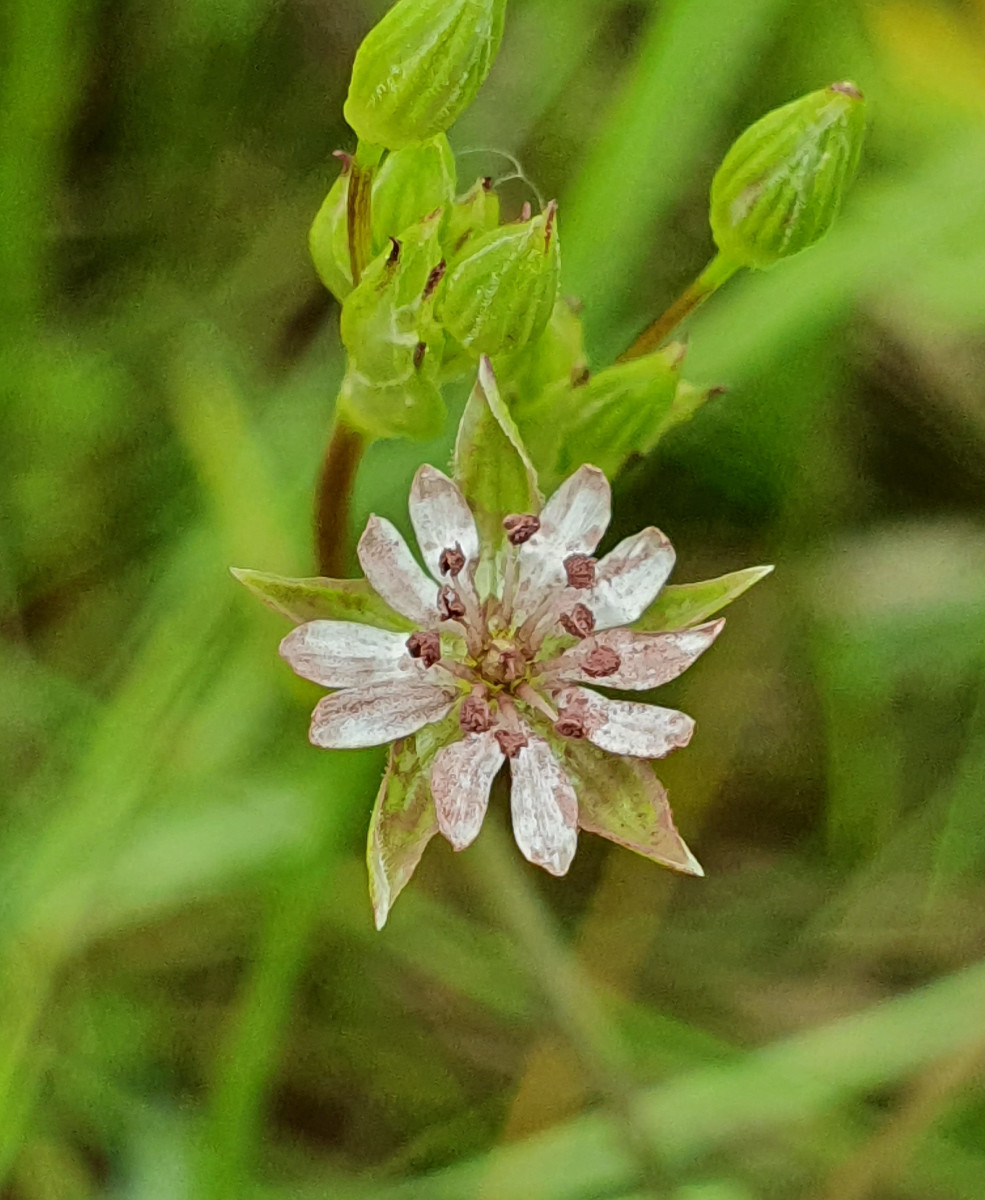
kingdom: Fungi
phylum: Basidiomycota
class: Microbotryomycetes
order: Microbotryales
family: Microbotryaceae
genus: Microbotryum
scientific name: Microbotryum stellariae
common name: fladstjerne-støvbladrust
